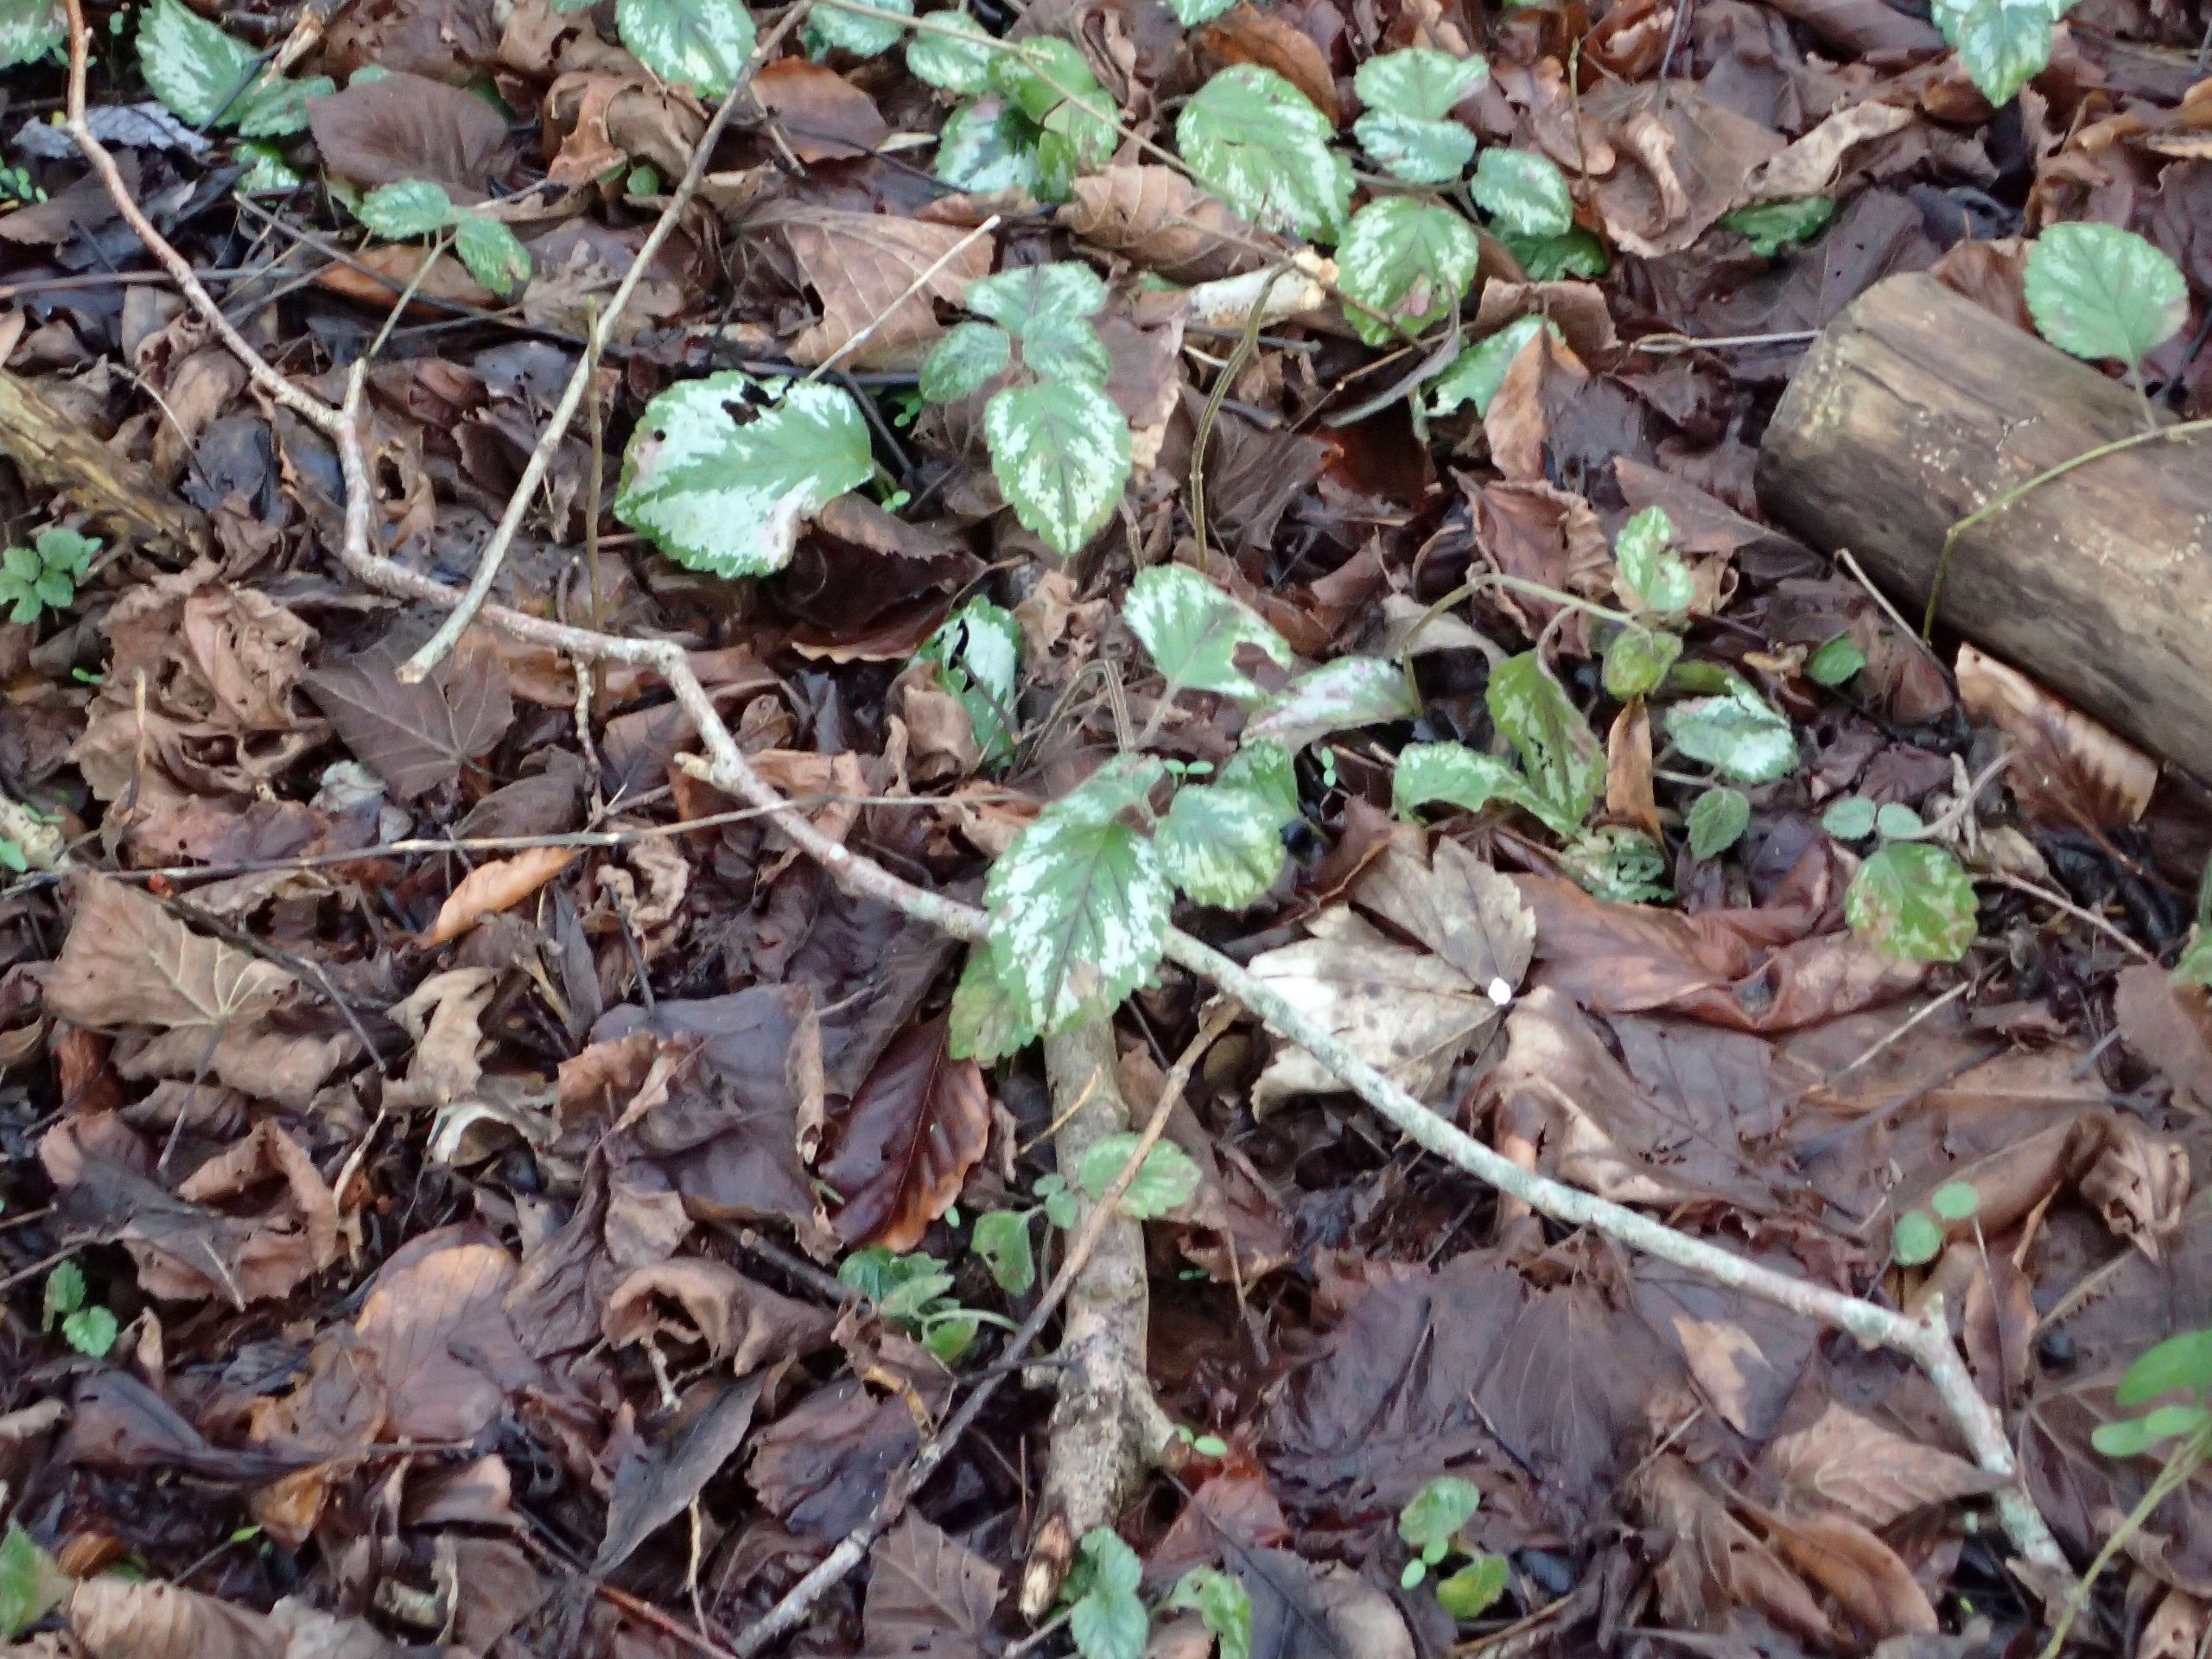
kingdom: Plantae
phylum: Tracheophyta
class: Magnoliopsida
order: Lamiales
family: Lamiaceae
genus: Lamium
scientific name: Lamium galeobdolon
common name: Have-guldnælde
